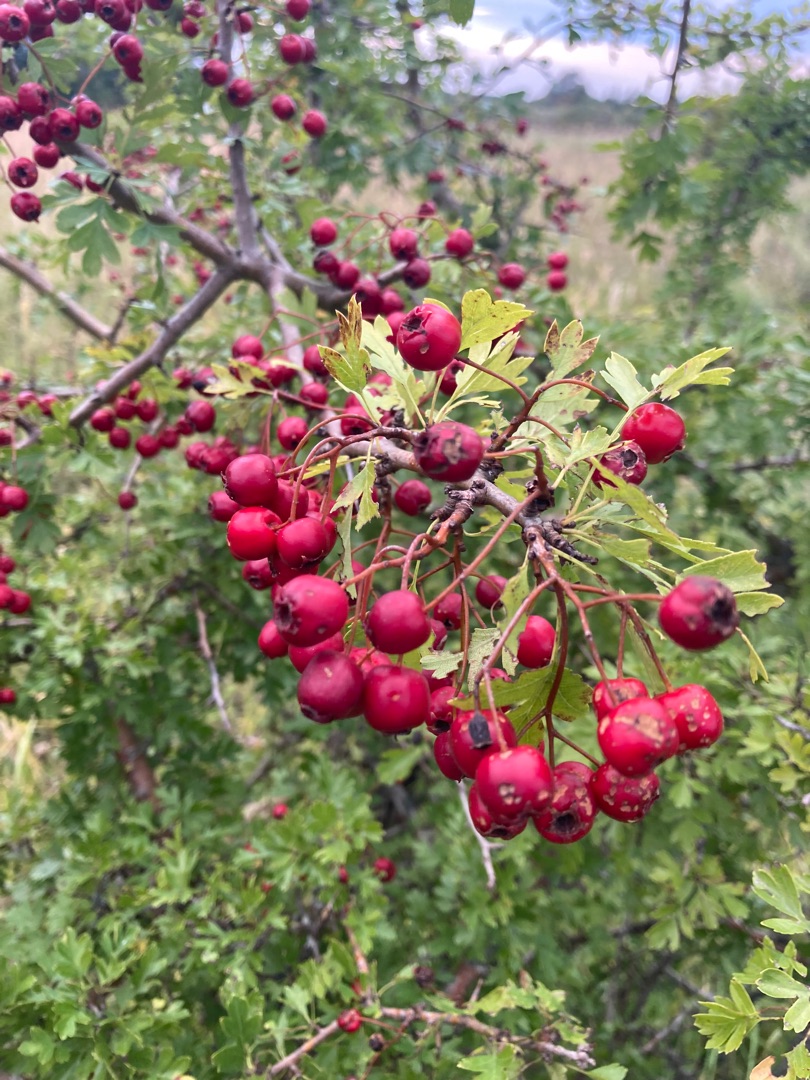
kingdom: Plantae
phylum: Tracheophyta
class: Magnoliopsida
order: Rosales
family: Rosaceae
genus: Crataegus
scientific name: Crataegus monogyna
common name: Engriflet hvidtjørn
